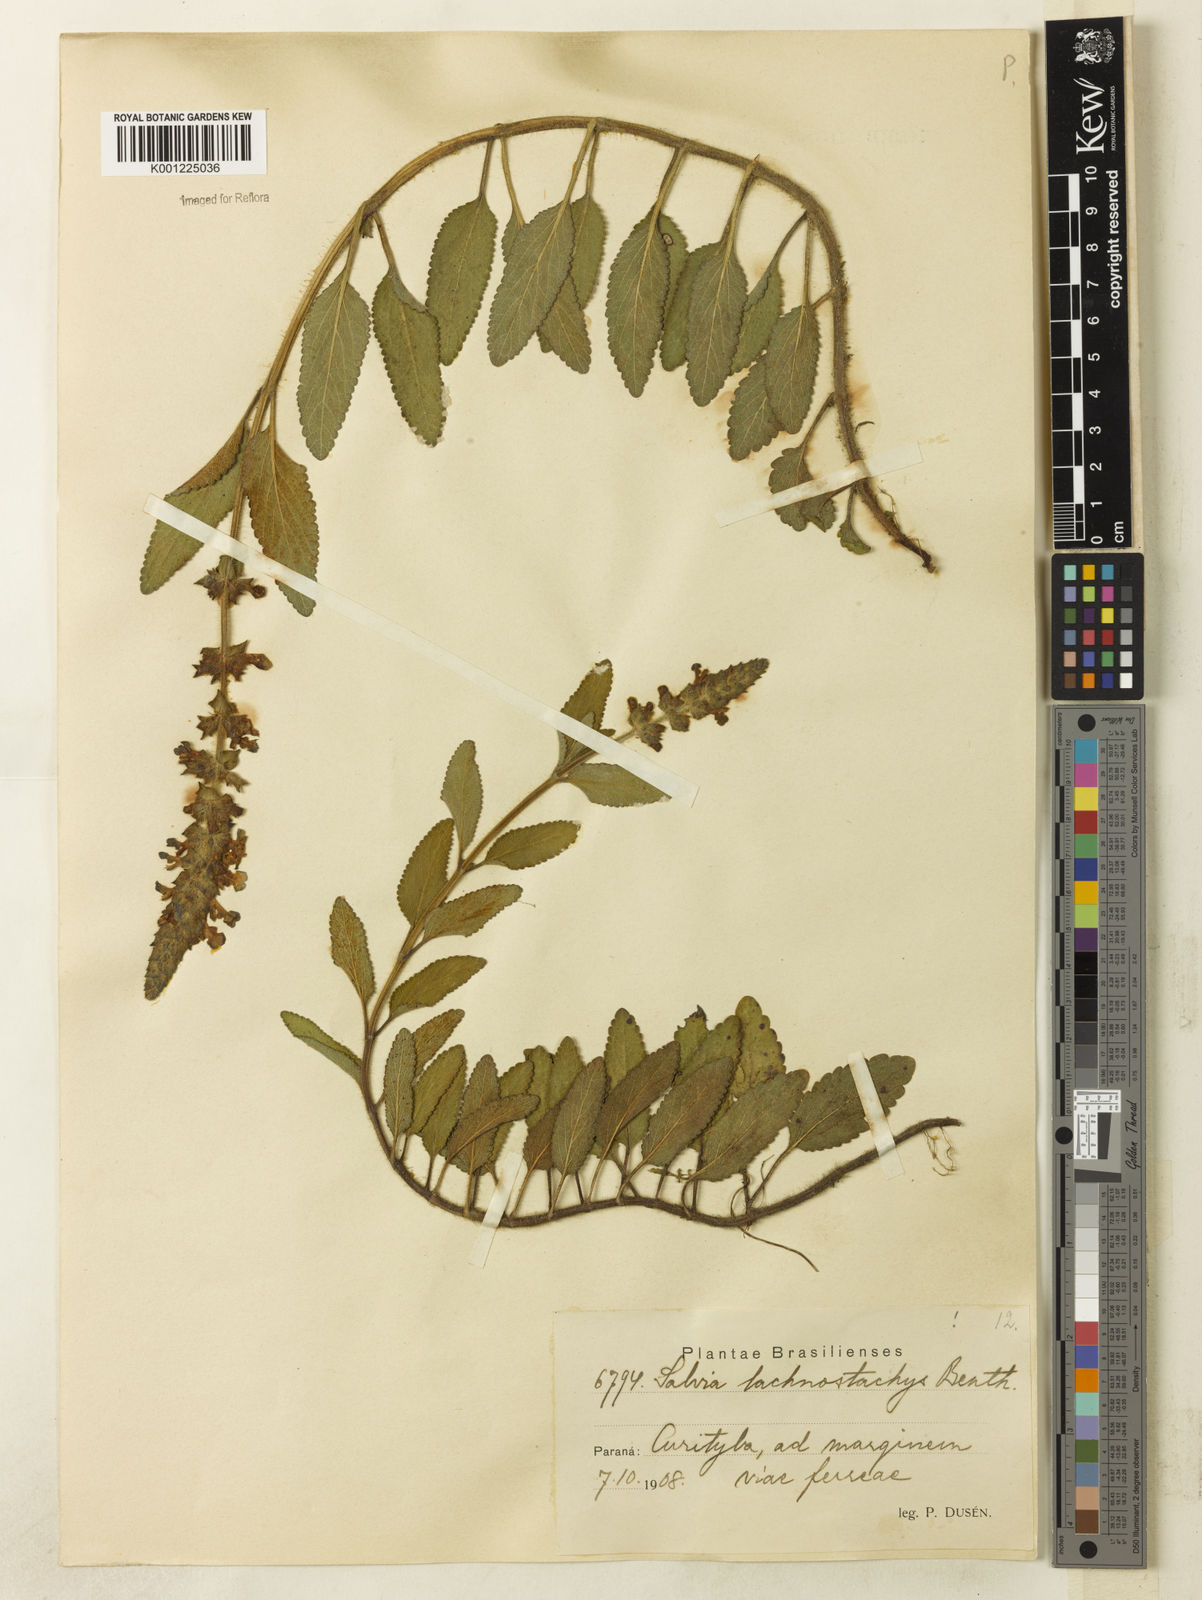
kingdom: Plantae
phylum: Tracheophyta
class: Magnoliopsida
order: Lamiales
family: Lamiaceae
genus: Salvia
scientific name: Salvia lachnostachys
